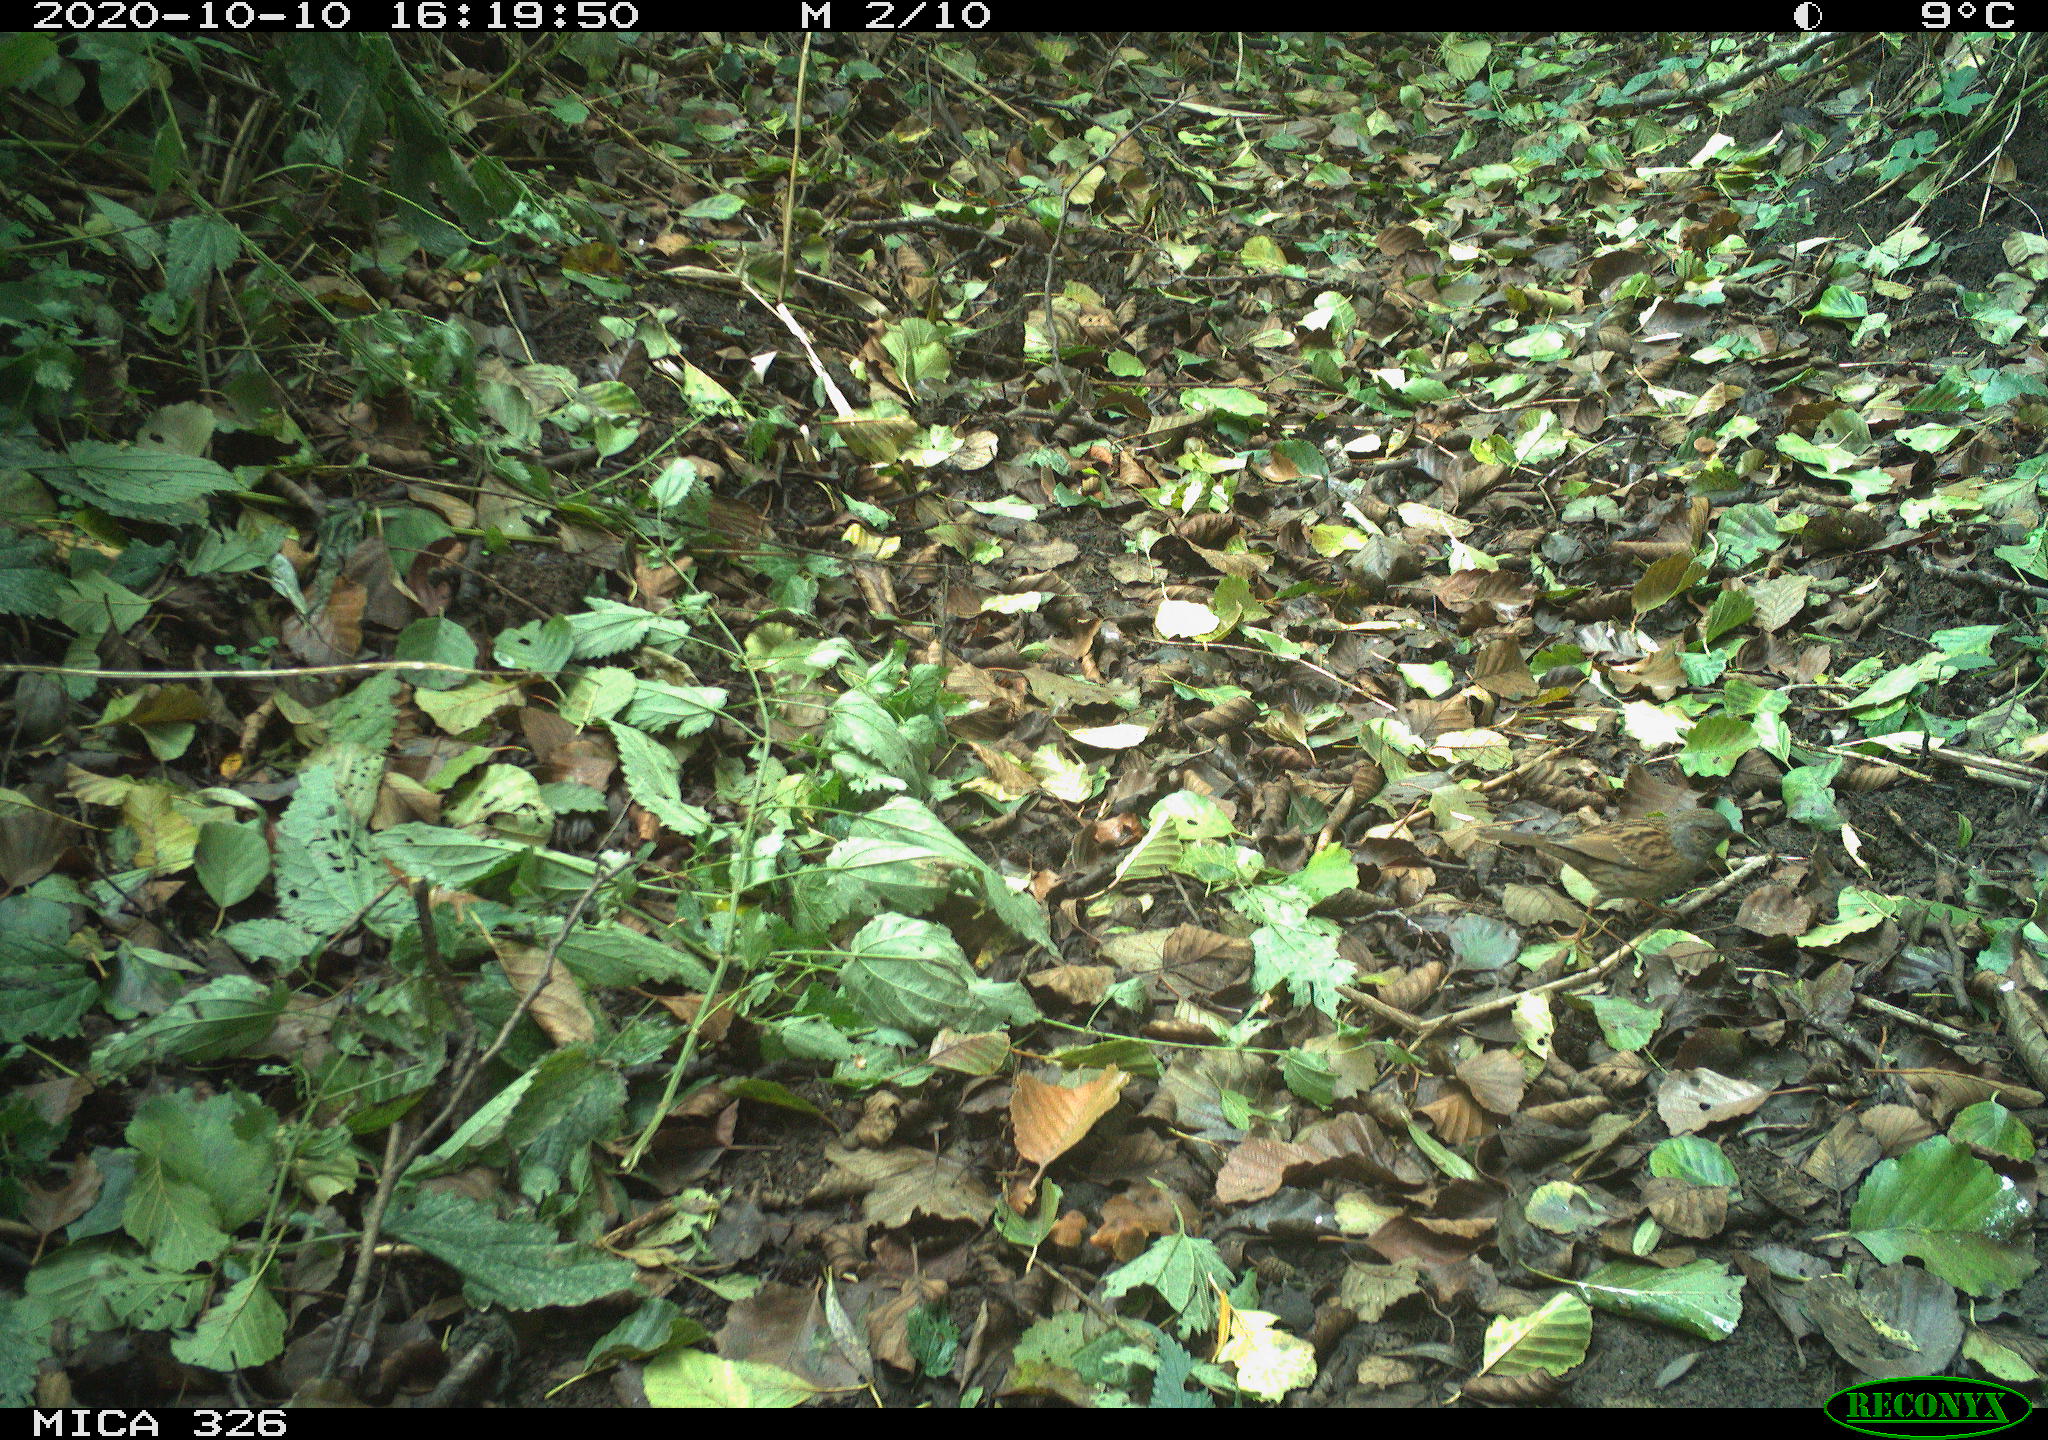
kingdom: Animalia
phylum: Chordata
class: Aves
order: Passeriformes
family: Prunellidae
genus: Prunella
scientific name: Prunella modularis
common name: Dunnock
